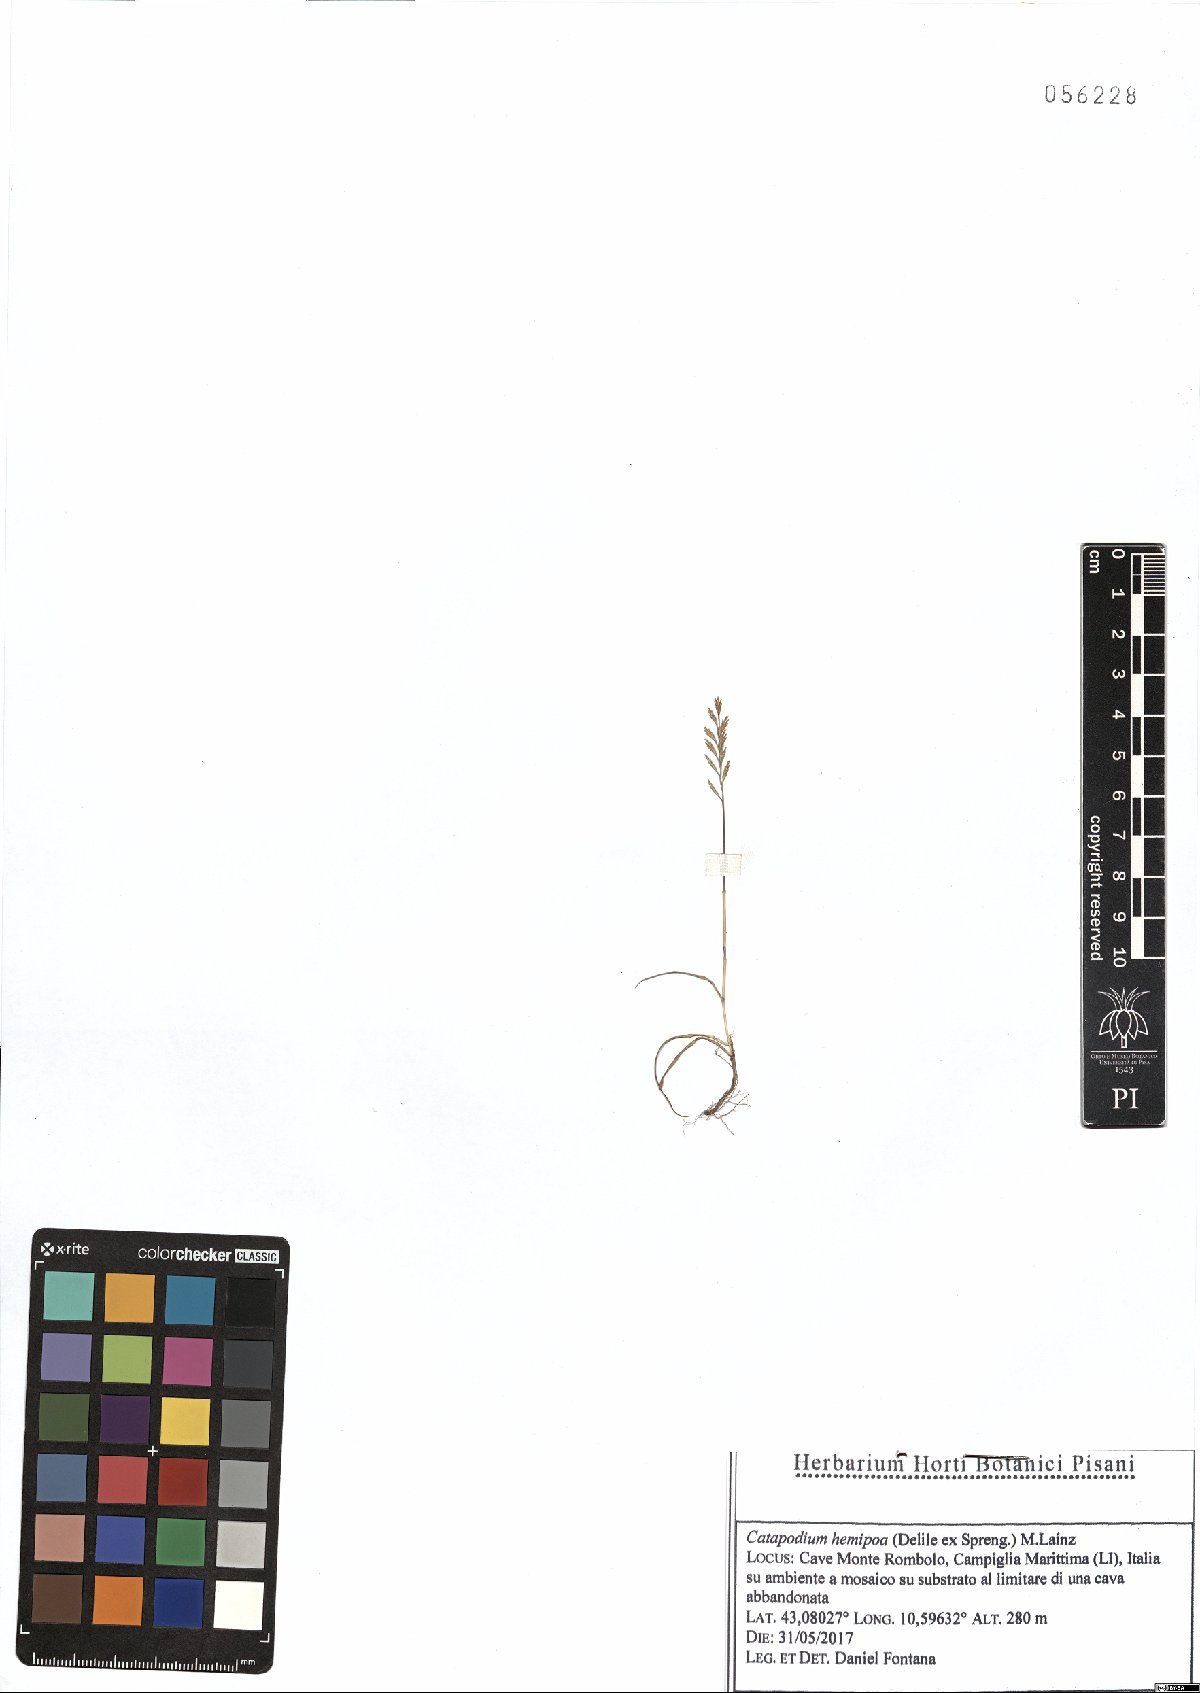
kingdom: Plantae
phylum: Tracheophyta
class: Liliopsida
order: Poales
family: Poaceae
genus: Catapodium
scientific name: Catapodium hemipoa
